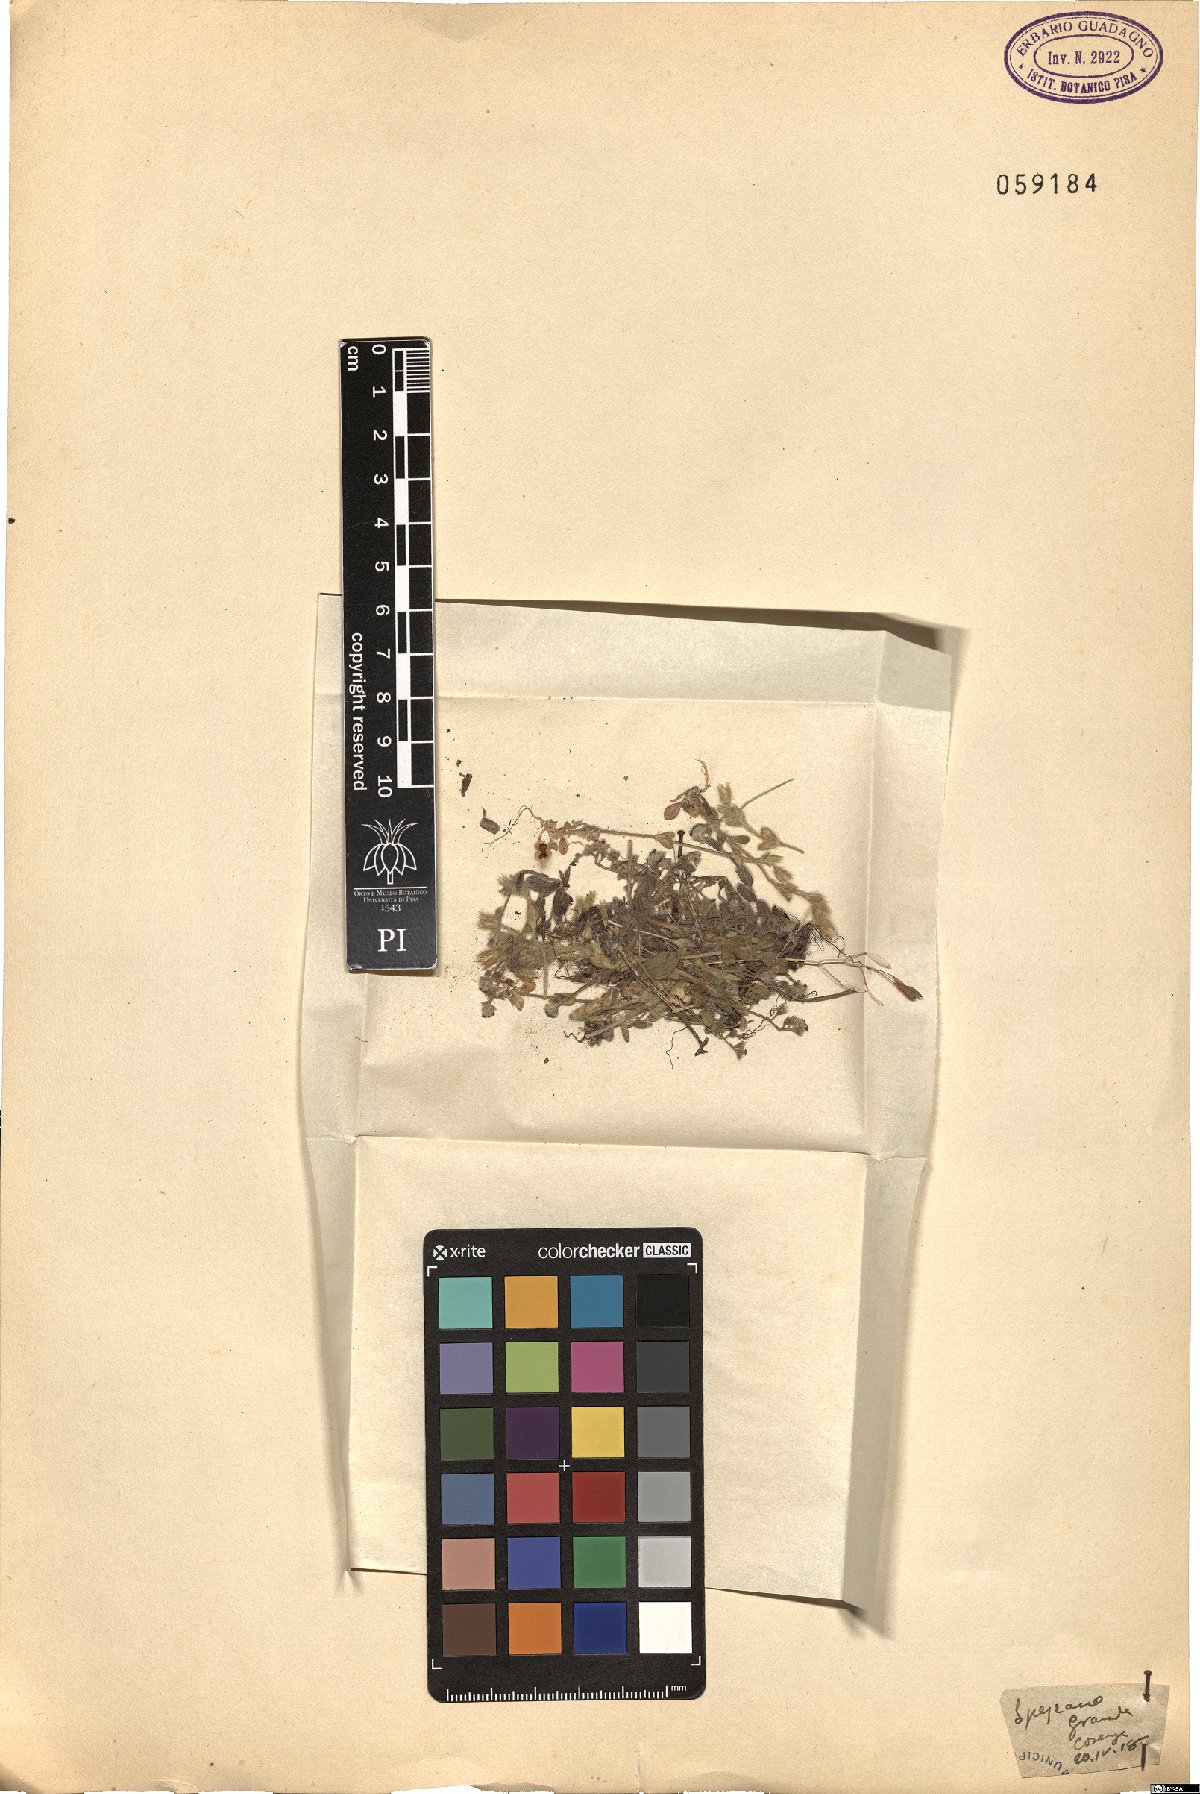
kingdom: Plantae
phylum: Tracheophyta
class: Magnoliopsida
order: Caryophyllales
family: Caryophyllaceae
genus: Cerastium
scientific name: Cerastium
